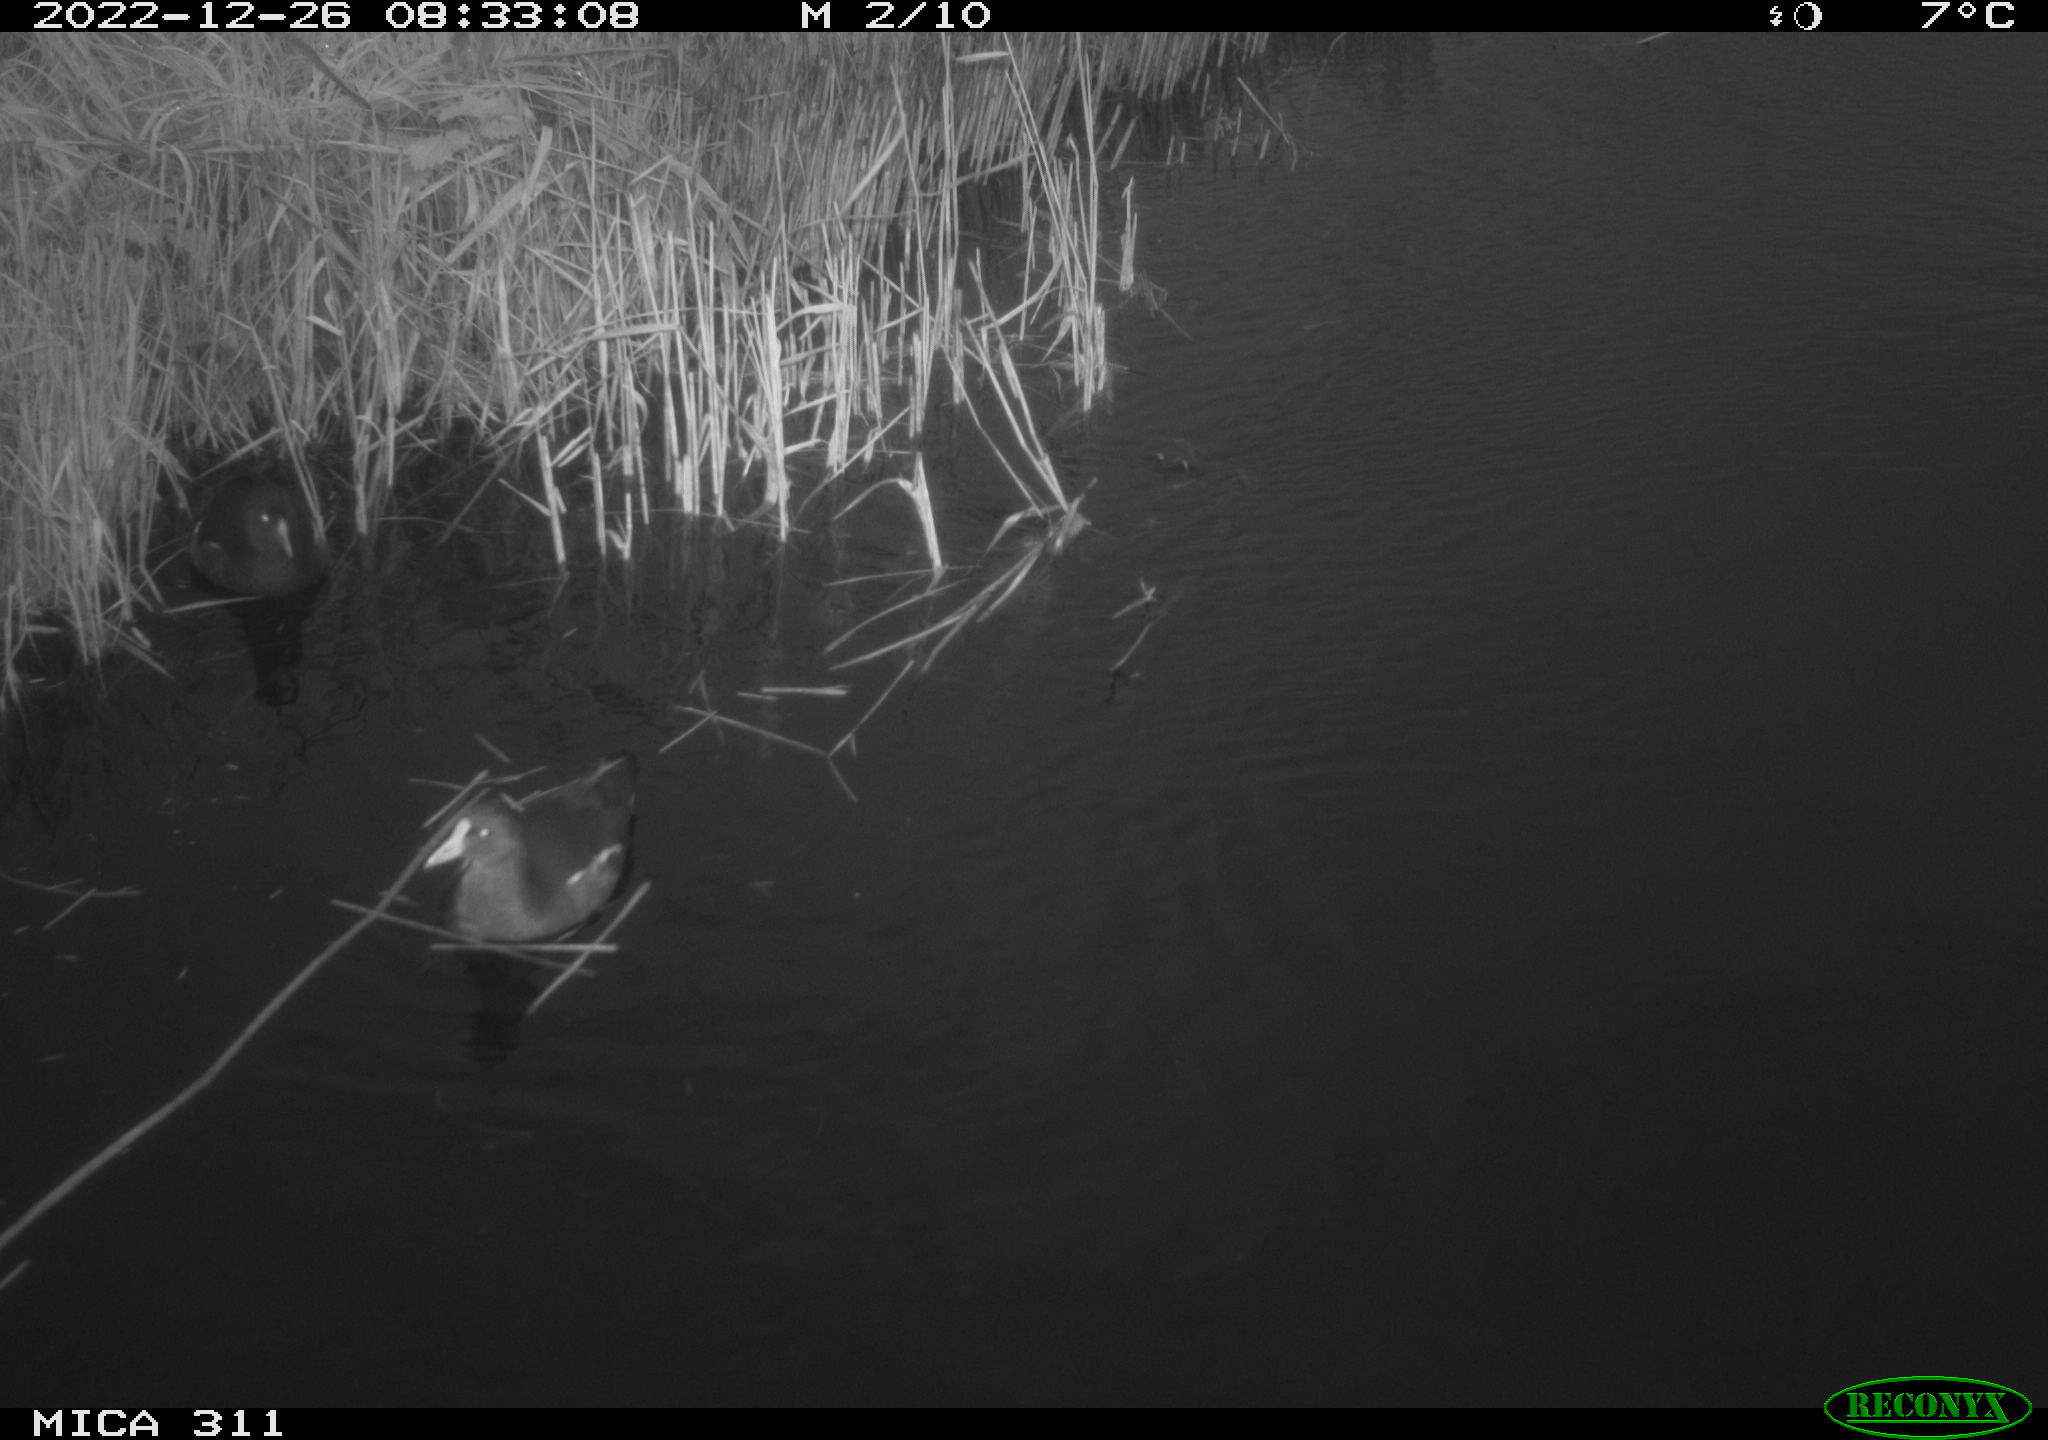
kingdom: Animalia
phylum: Chordata
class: Aves
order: Gruiformes
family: Rallidae
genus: Gallinula
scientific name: Gallinula chloropus
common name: Common moorhen
